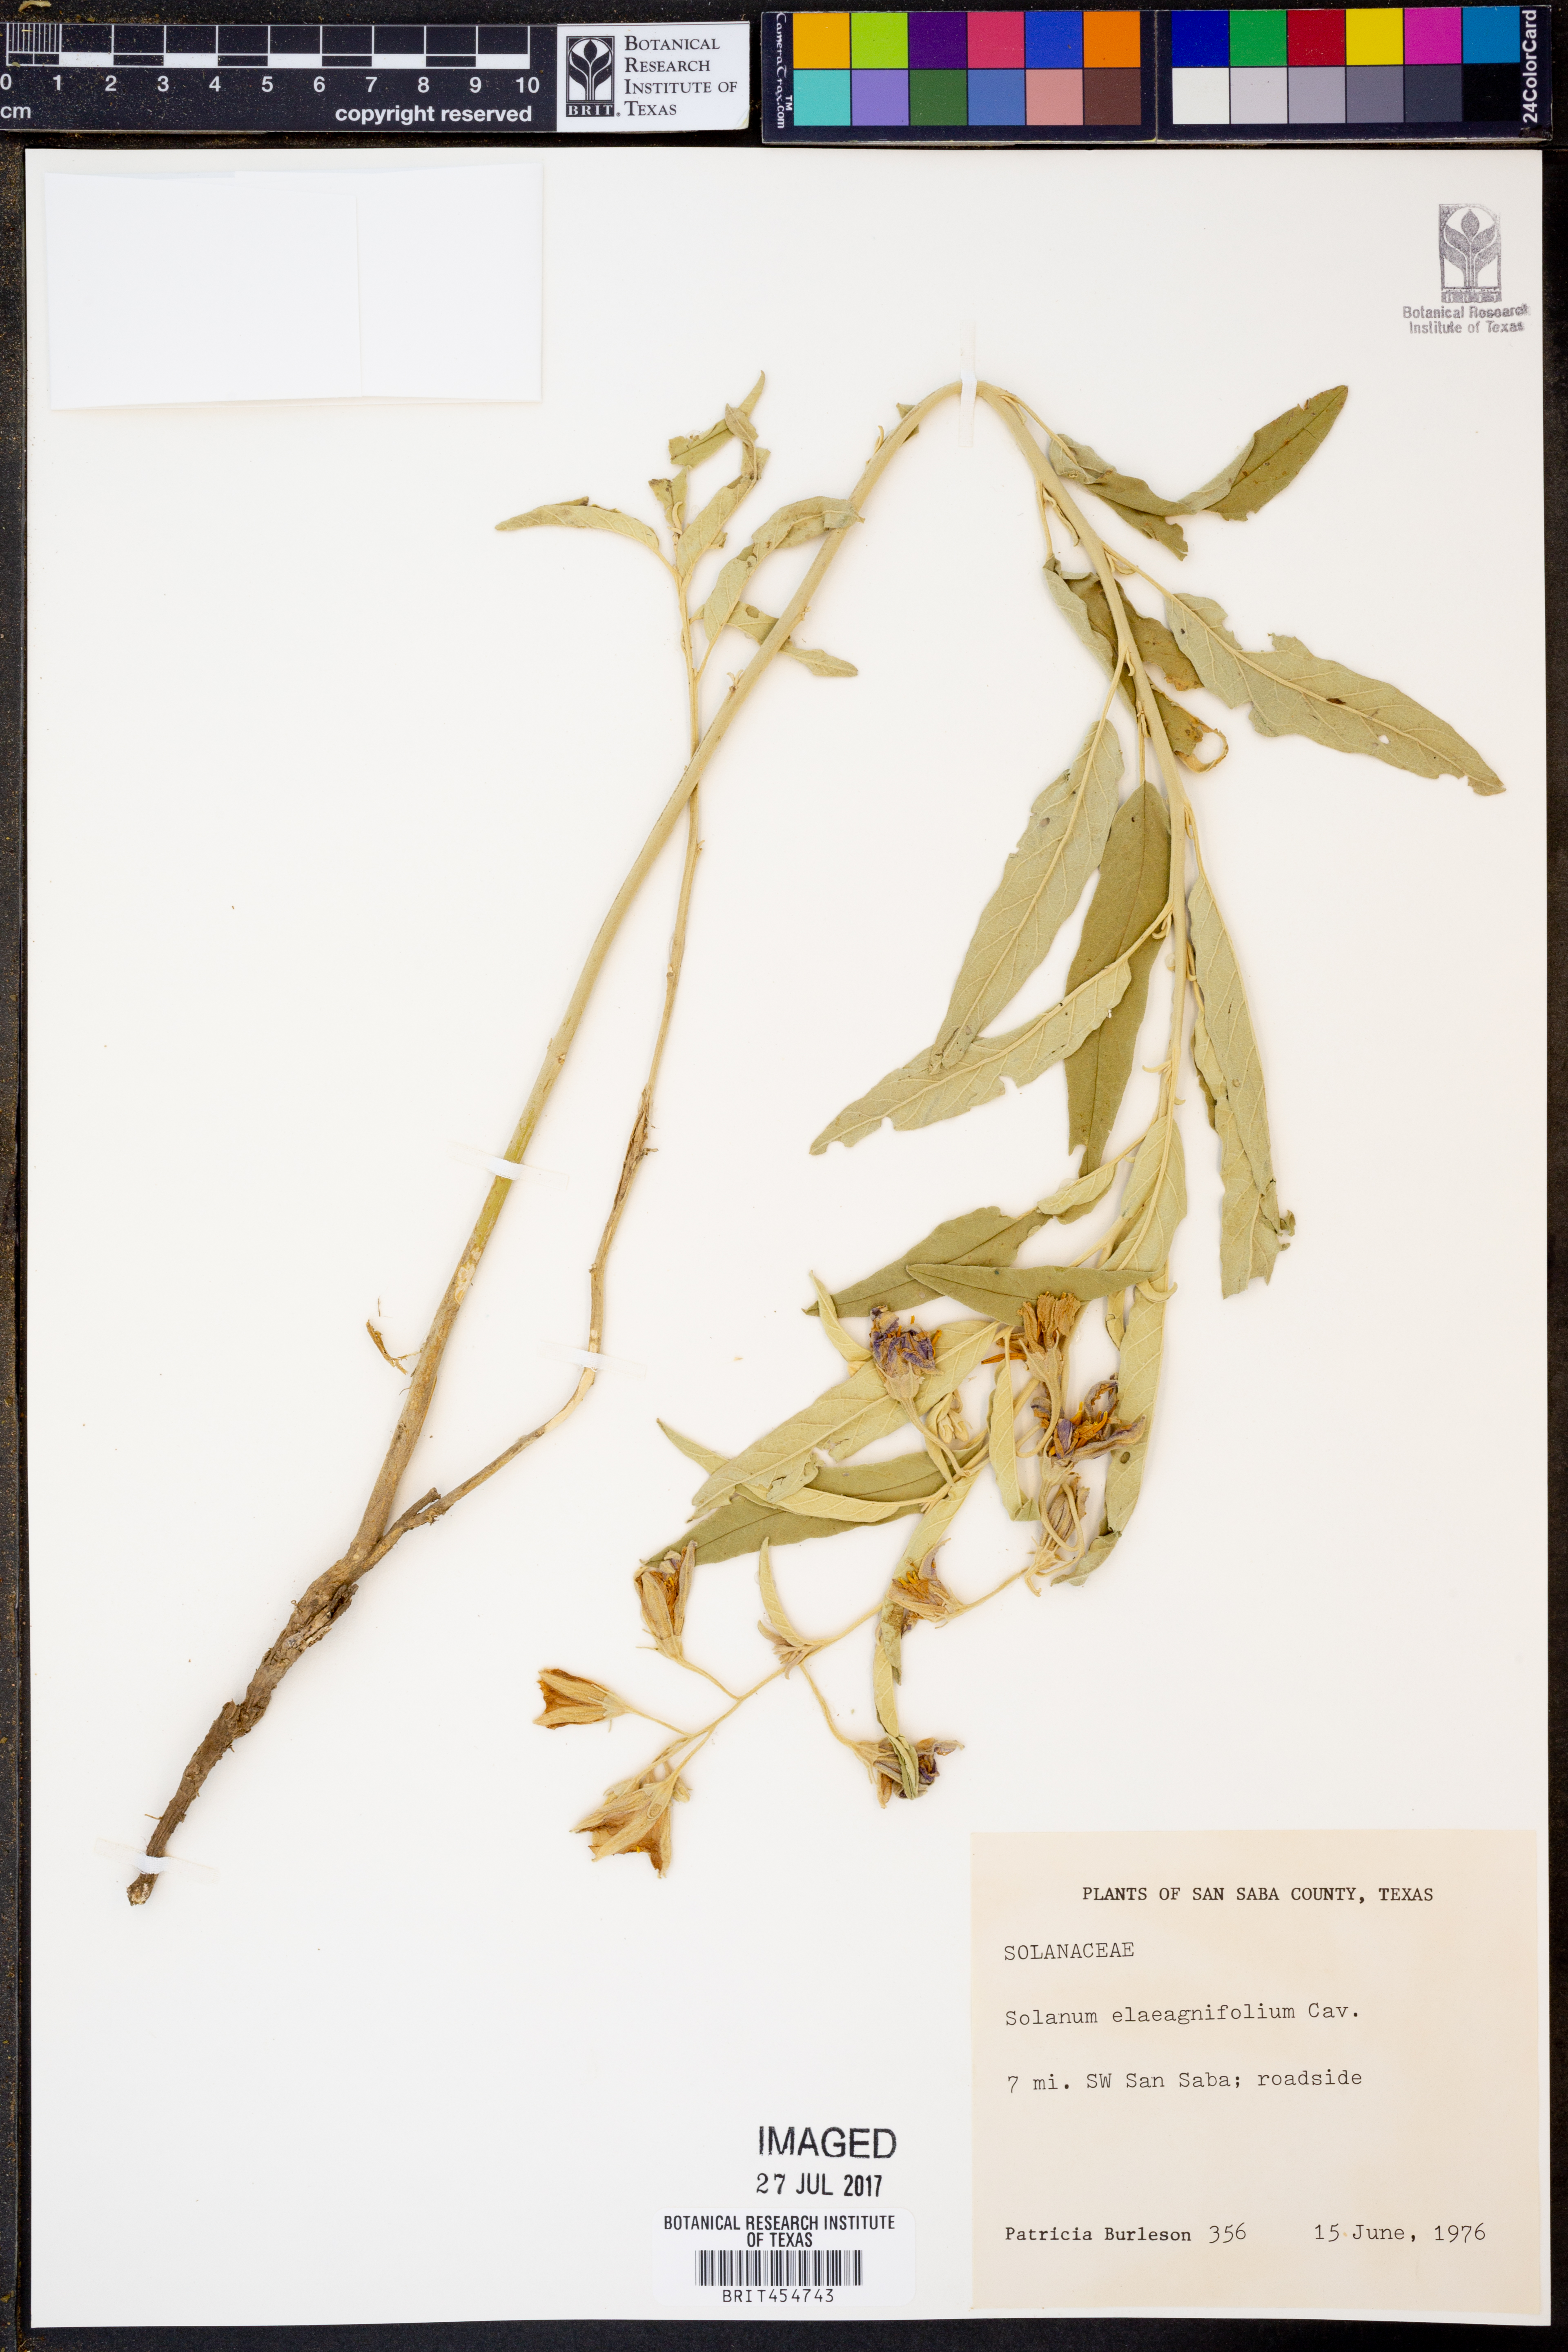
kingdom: Plantae
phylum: Tracheophyta
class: Magnoliopsida
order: Solanales
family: Solanaceae
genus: Solanum
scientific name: Solanum elaeagnifolium
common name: Silverleaf nightshade
